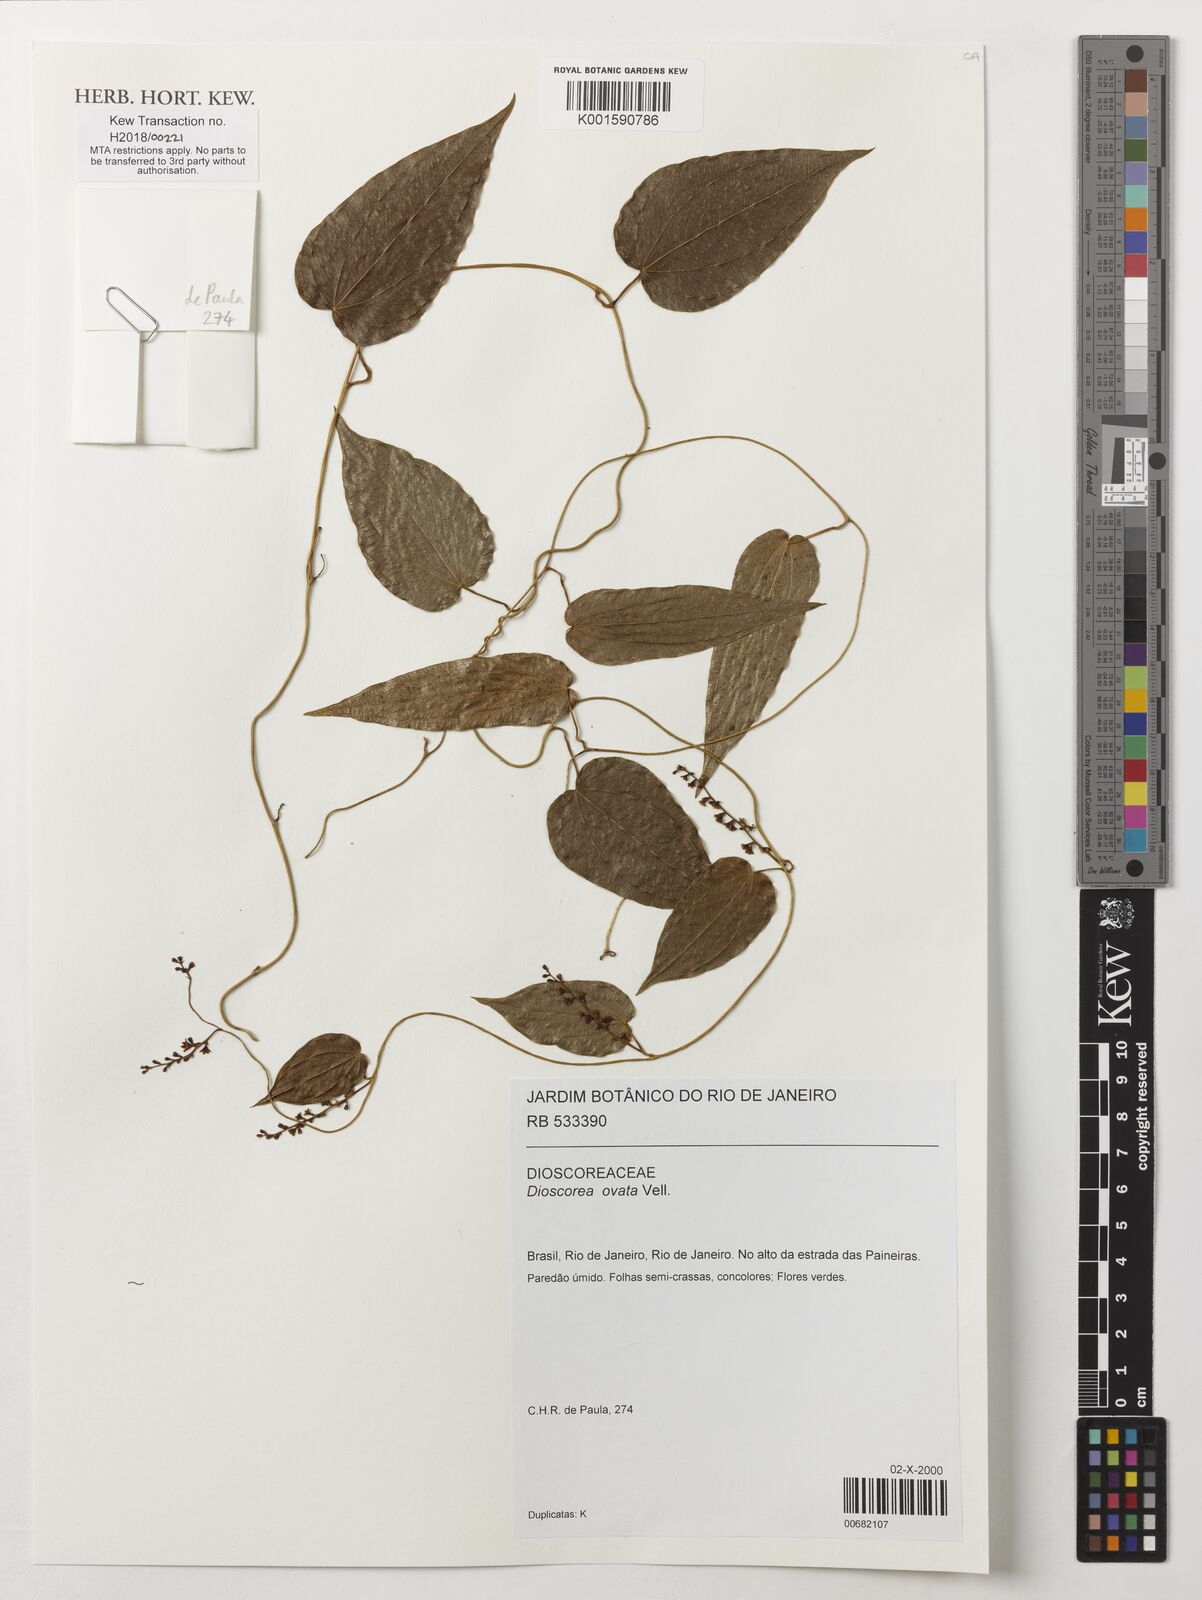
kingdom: Plantae
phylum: Tracheophyta
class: Liliopsida
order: Dioscoreales
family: Dioscoreaceae
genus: Dioscorea
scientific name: Dioscorea ovata
